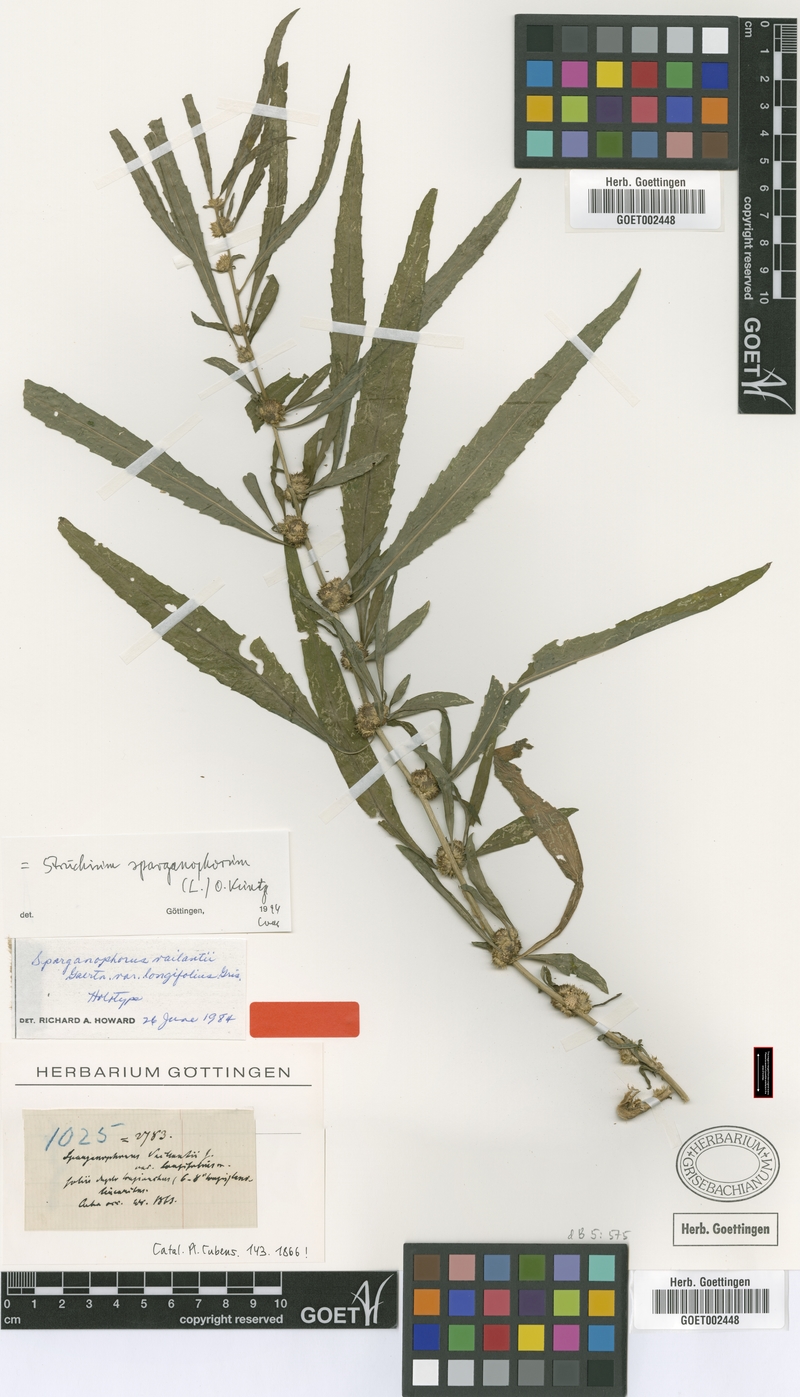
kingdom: Plantae
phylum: Tracheophyta
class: Magnoliopsida
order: Asterales
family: Asteraceae
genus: Struchium
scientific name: Struchium sparganophorum
